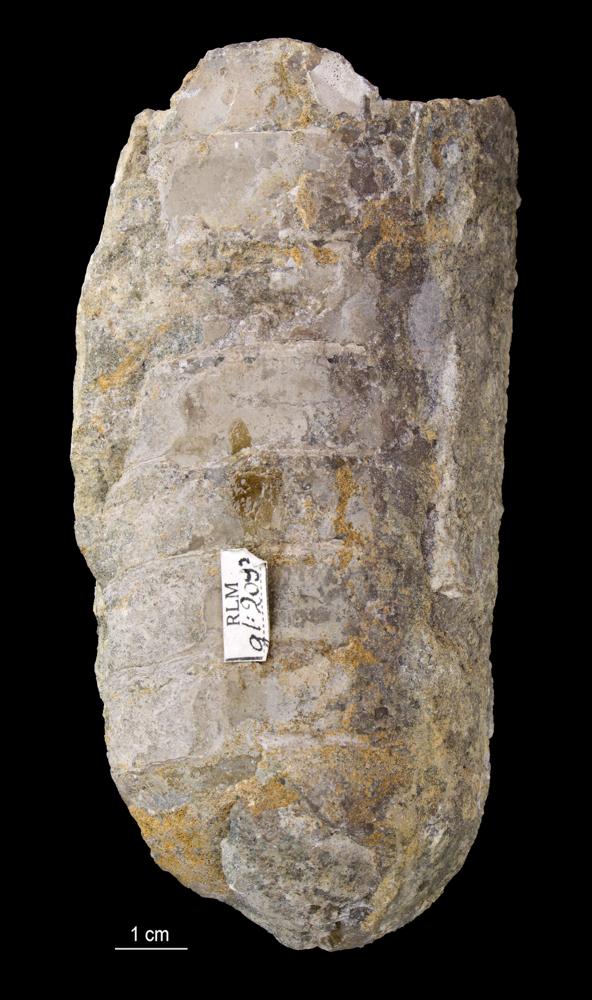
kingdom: Animalia
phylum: Mollusca
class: Cephalopoda
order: Orthocerida
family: Orthoceratidae
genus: Orthoceras
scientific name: Orthoceras
